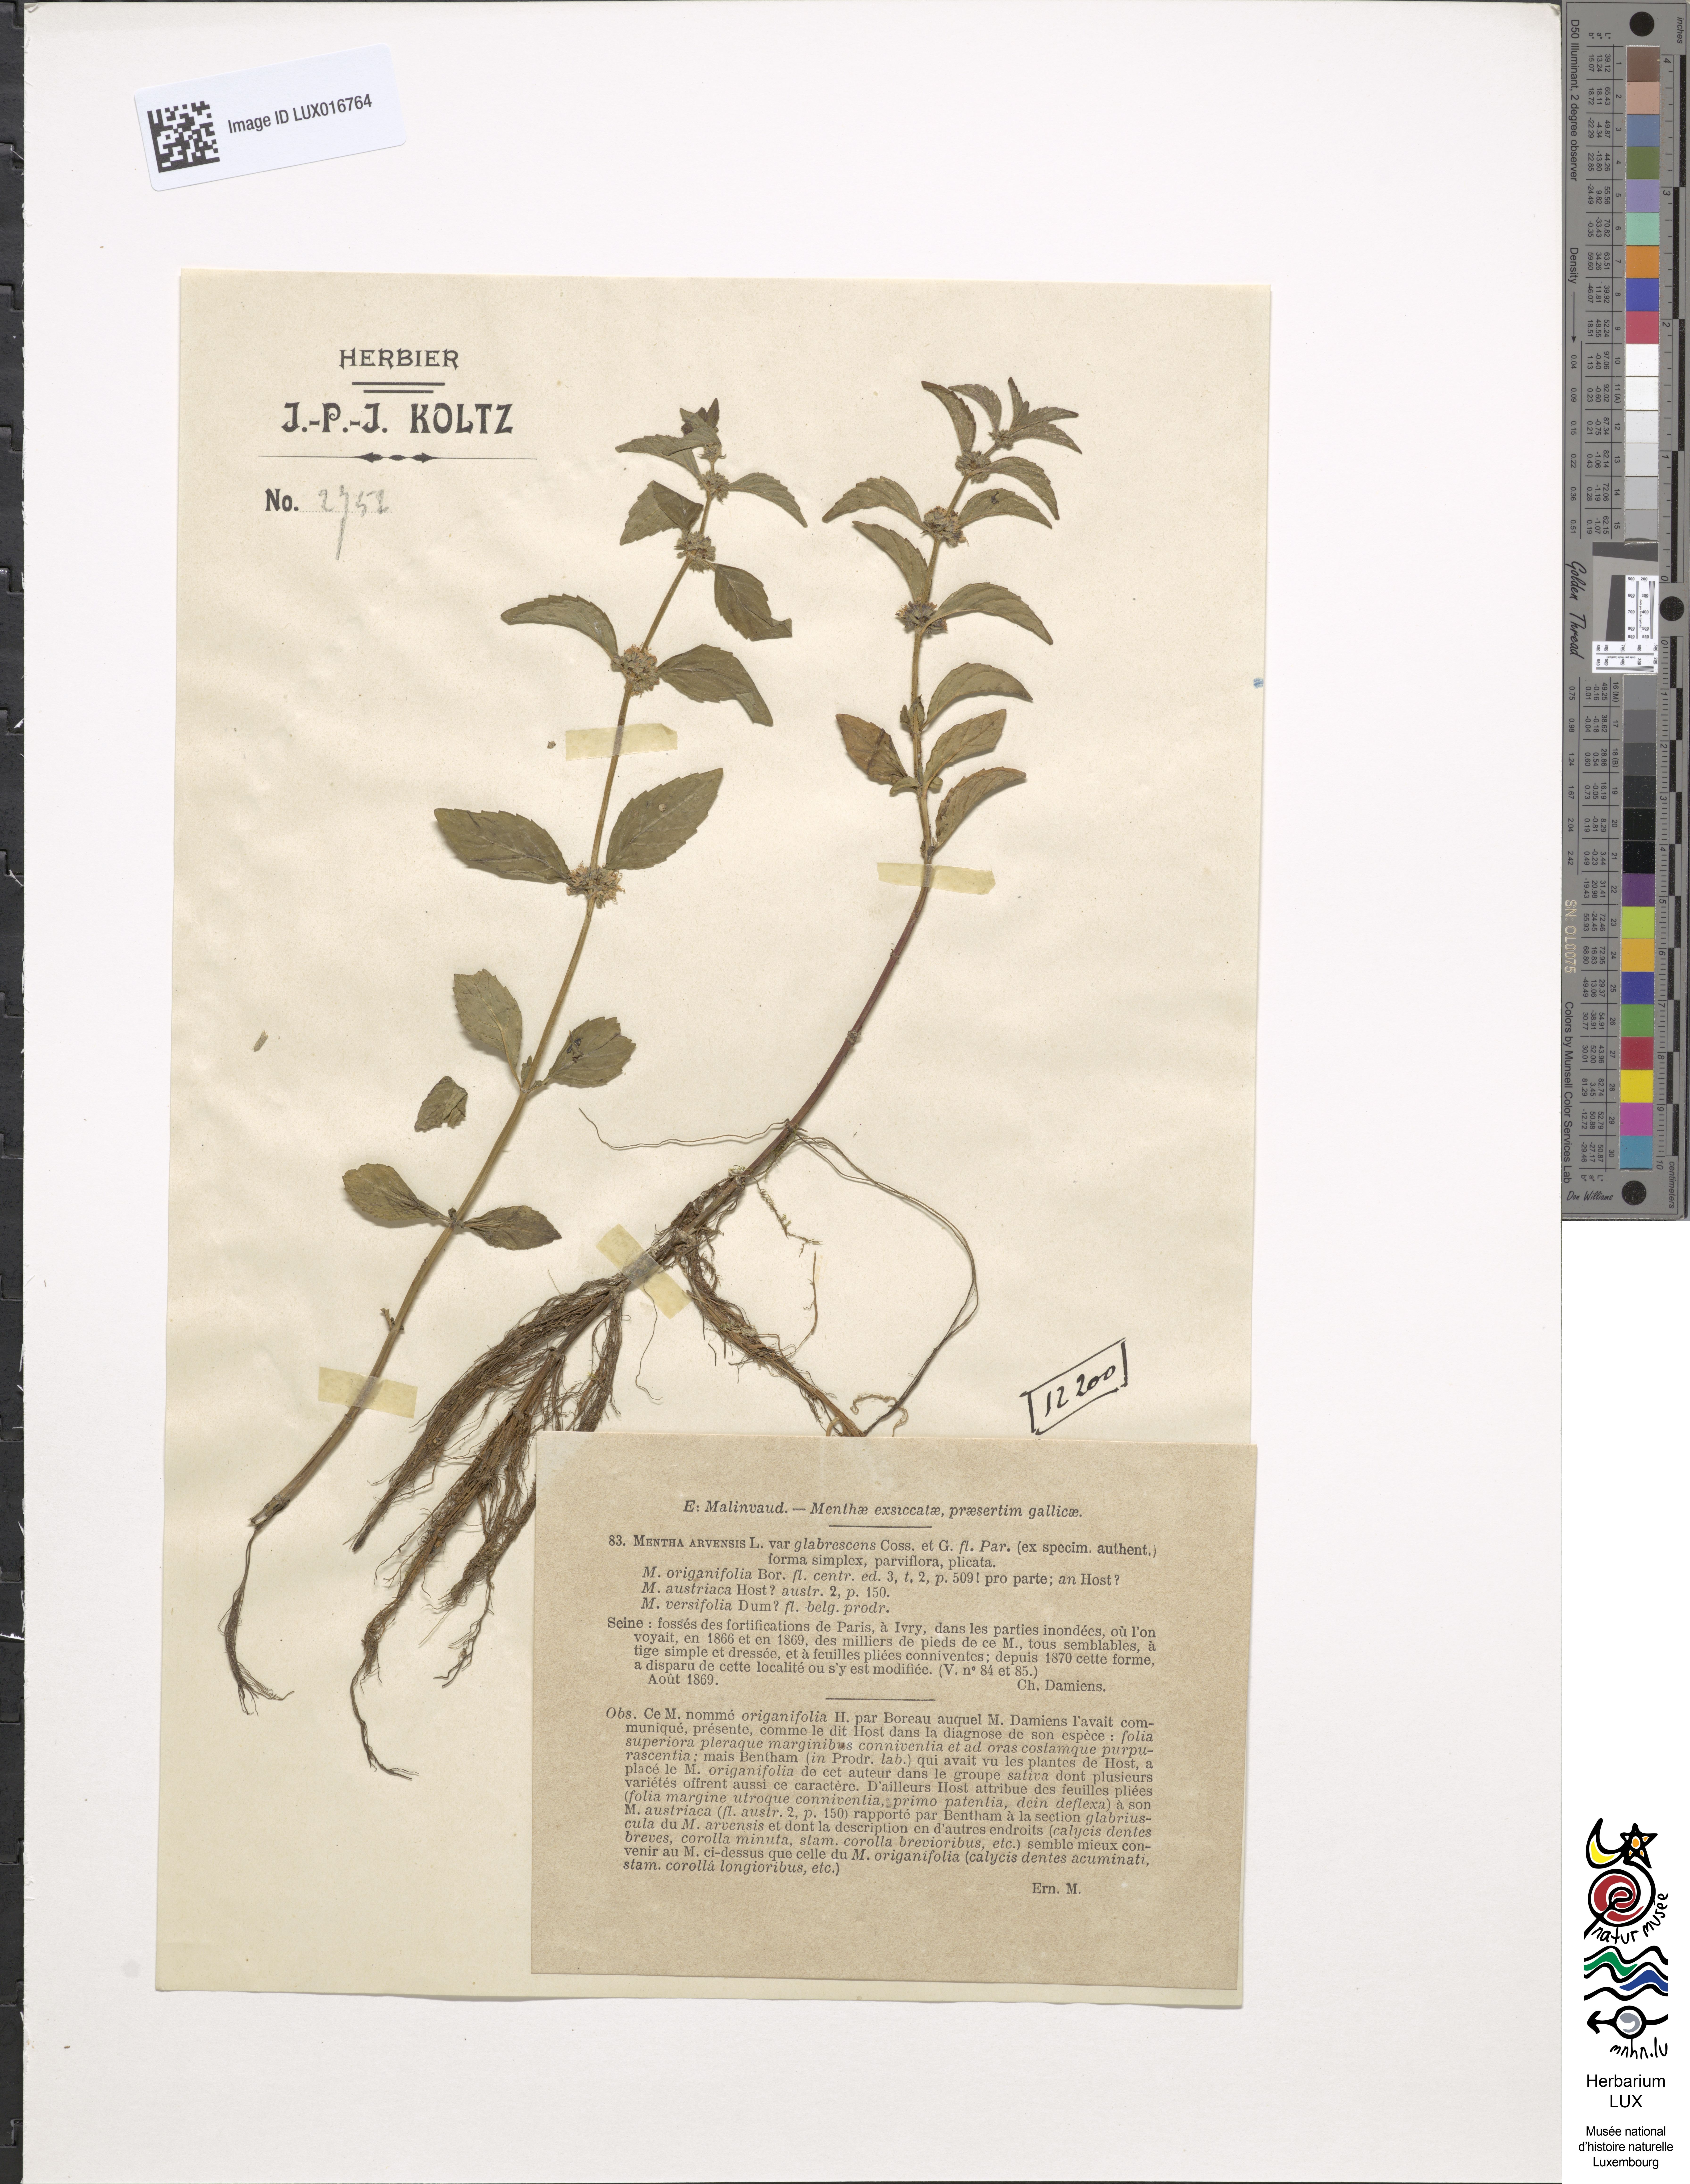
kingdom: Plantae
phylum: Tracheophyta
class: Magnoliopsida
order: Lamiales
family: Lamiaceae
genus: Mentha
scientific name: Mentha arvensis
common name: Corn mint
